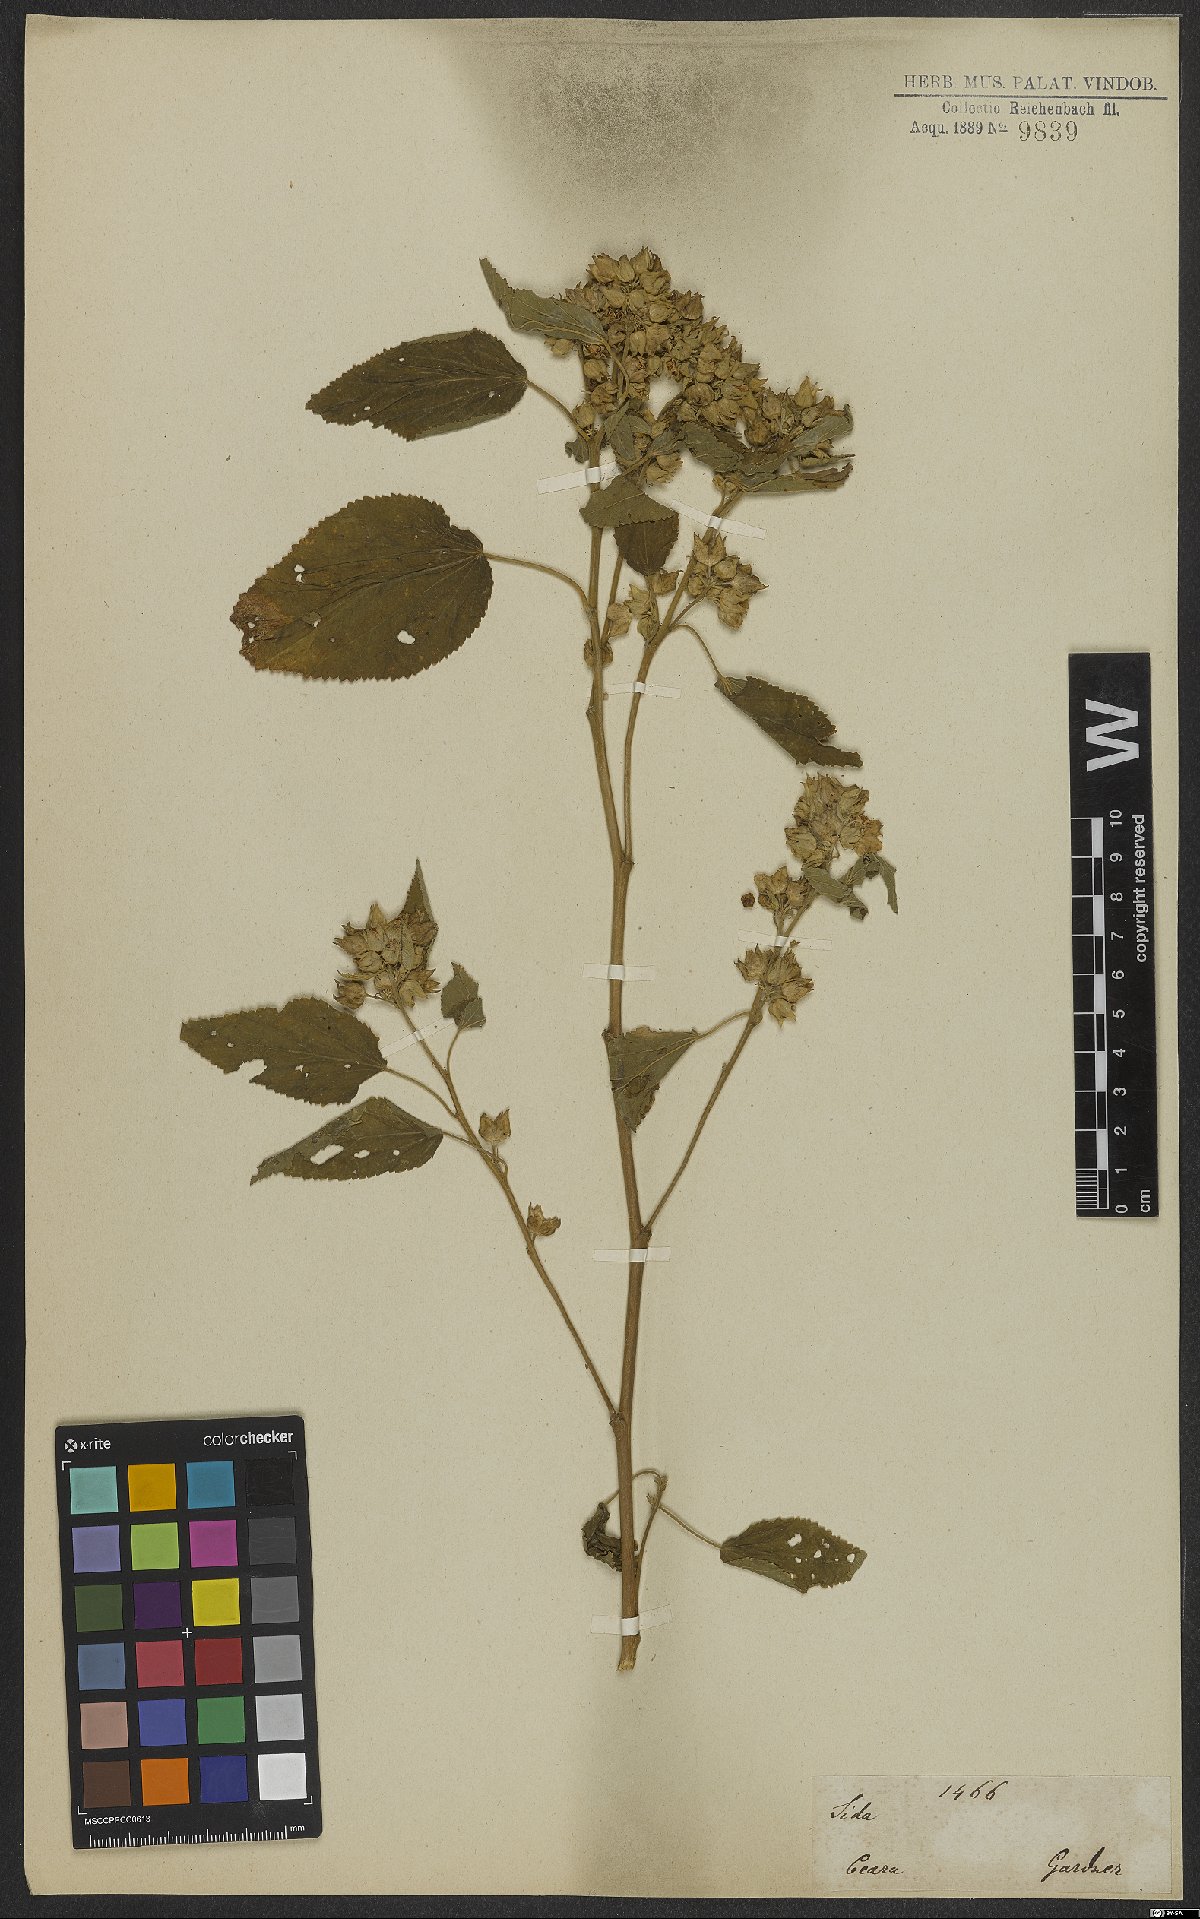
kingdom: Plantae
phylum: Tracheophyta
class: Magnoliopsida
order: Malvales
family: Malvaceae
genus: Sida
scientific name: Sida
